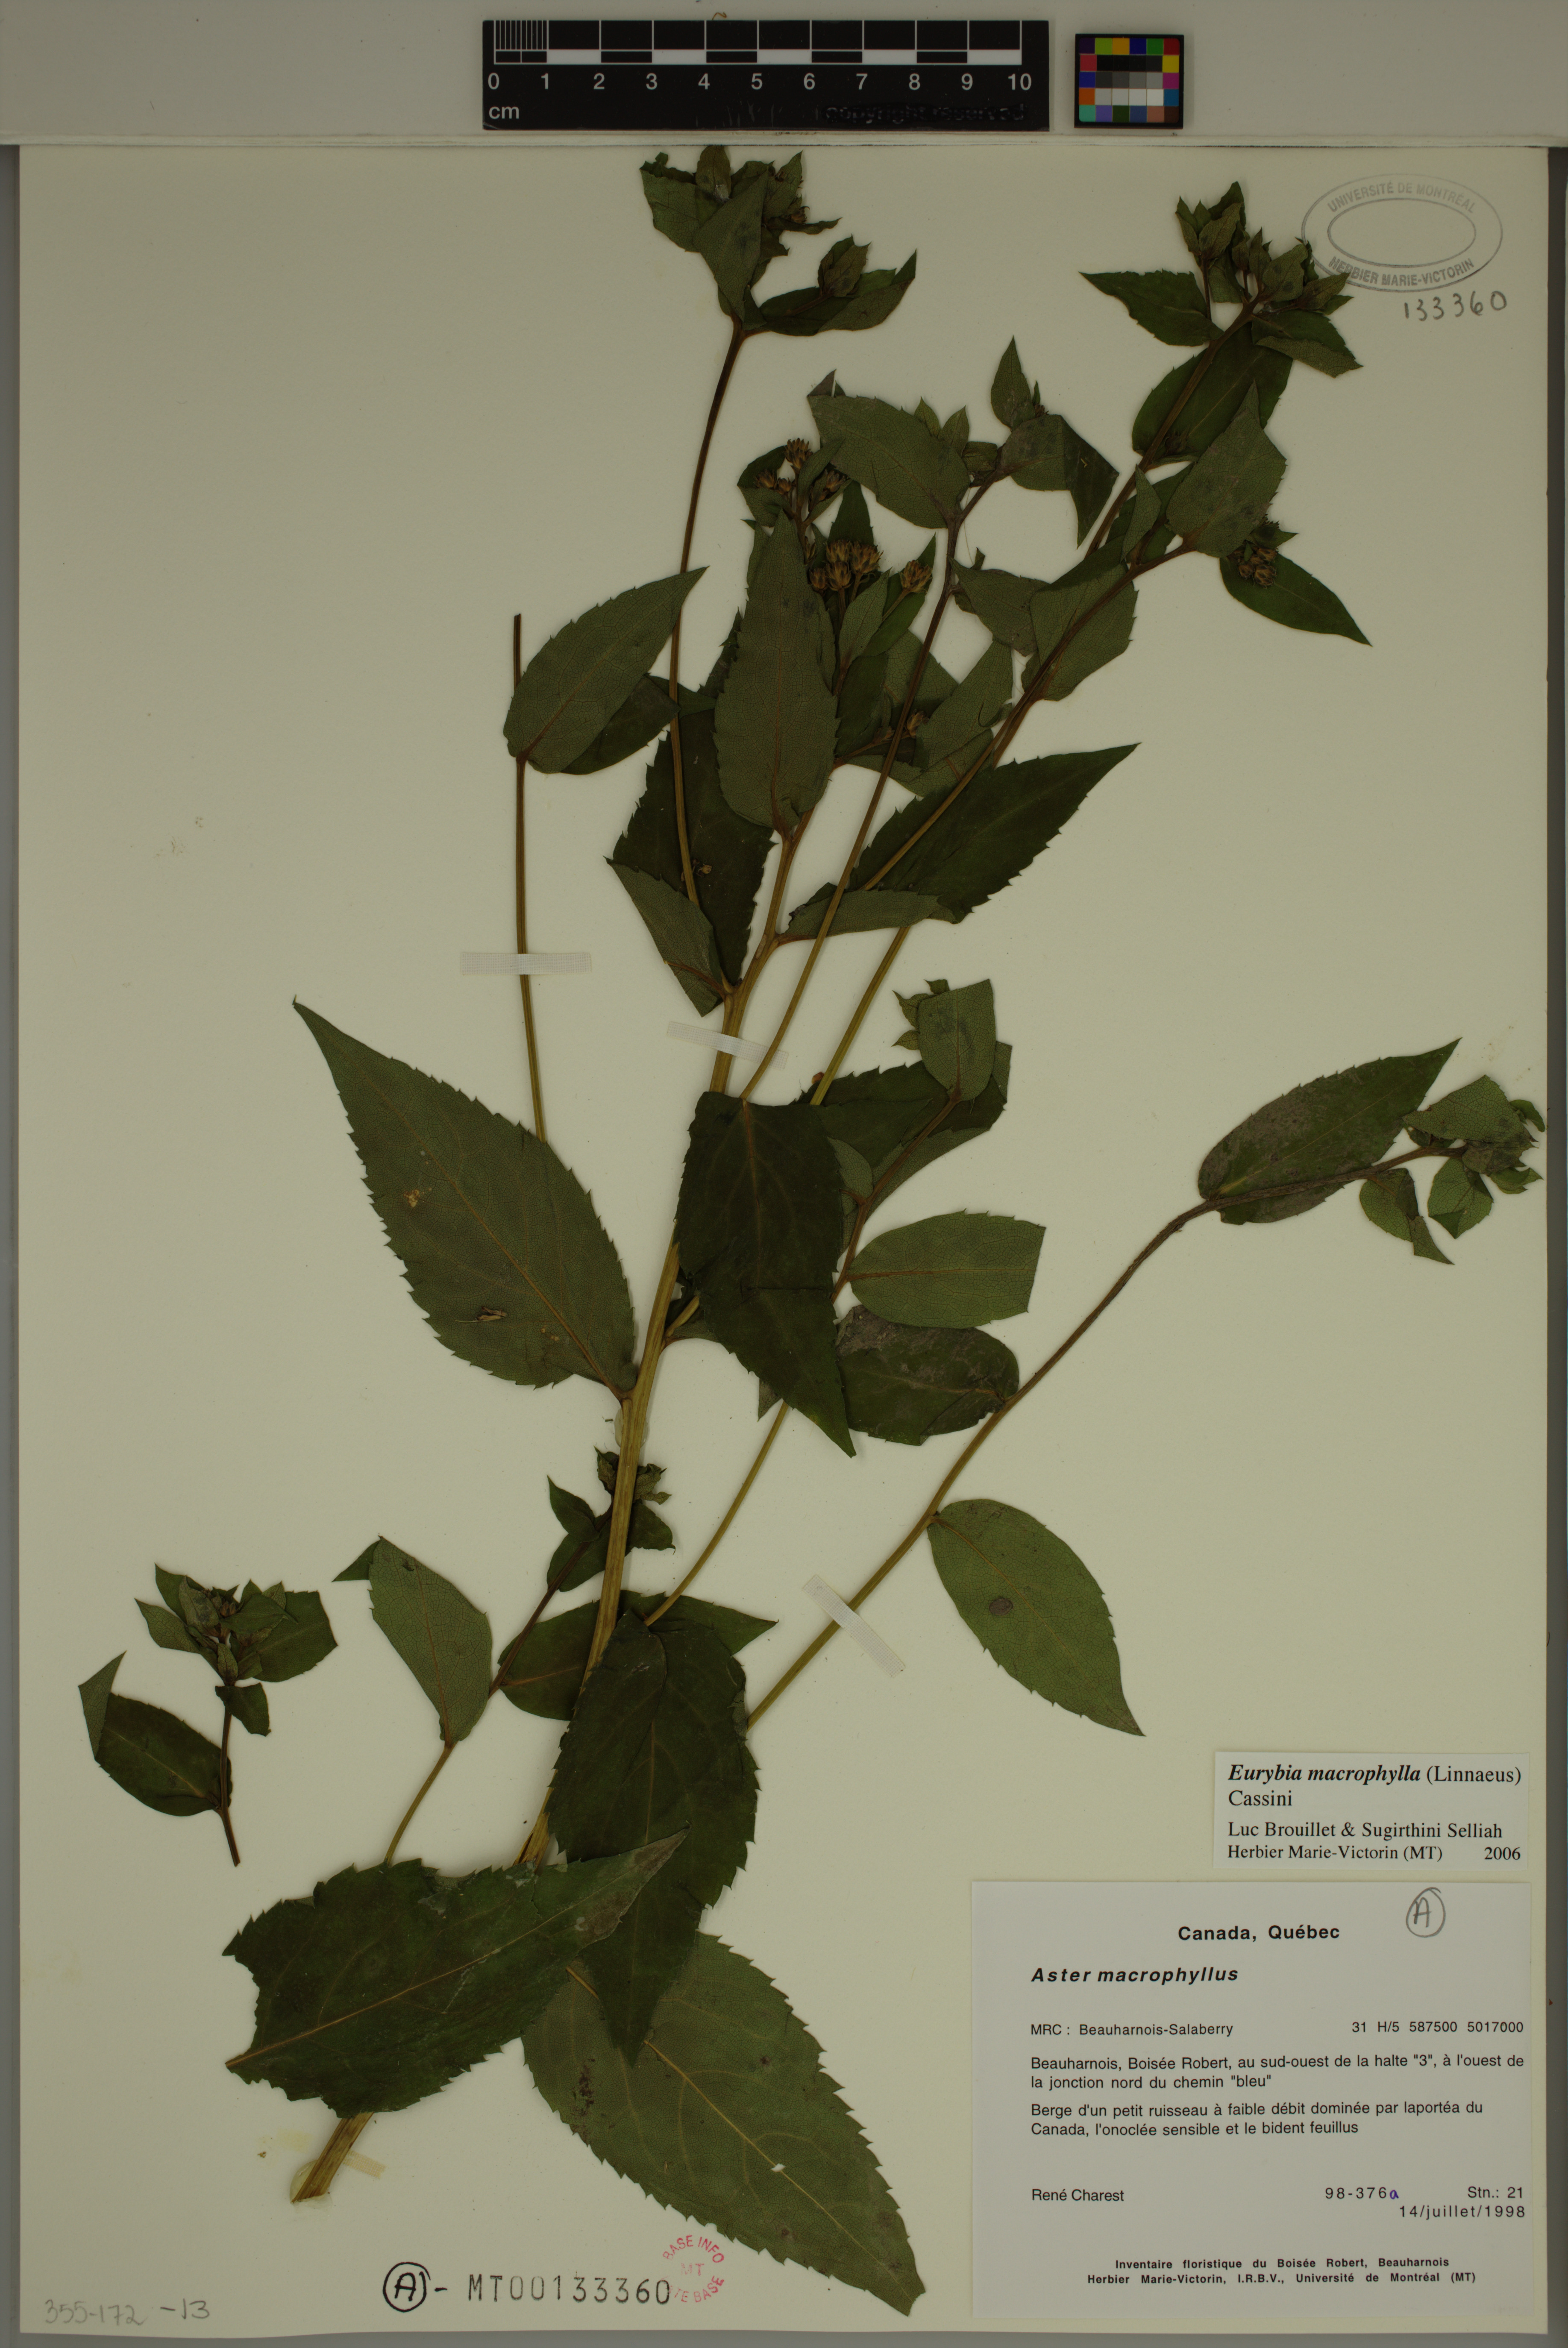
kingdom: Plantae
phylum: Tracheophyta
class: Magnoliopsida
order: Asterales
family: Asteraceae
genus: Eurybia
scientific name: Eurybia macrophylla
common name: Big-leaved aster
